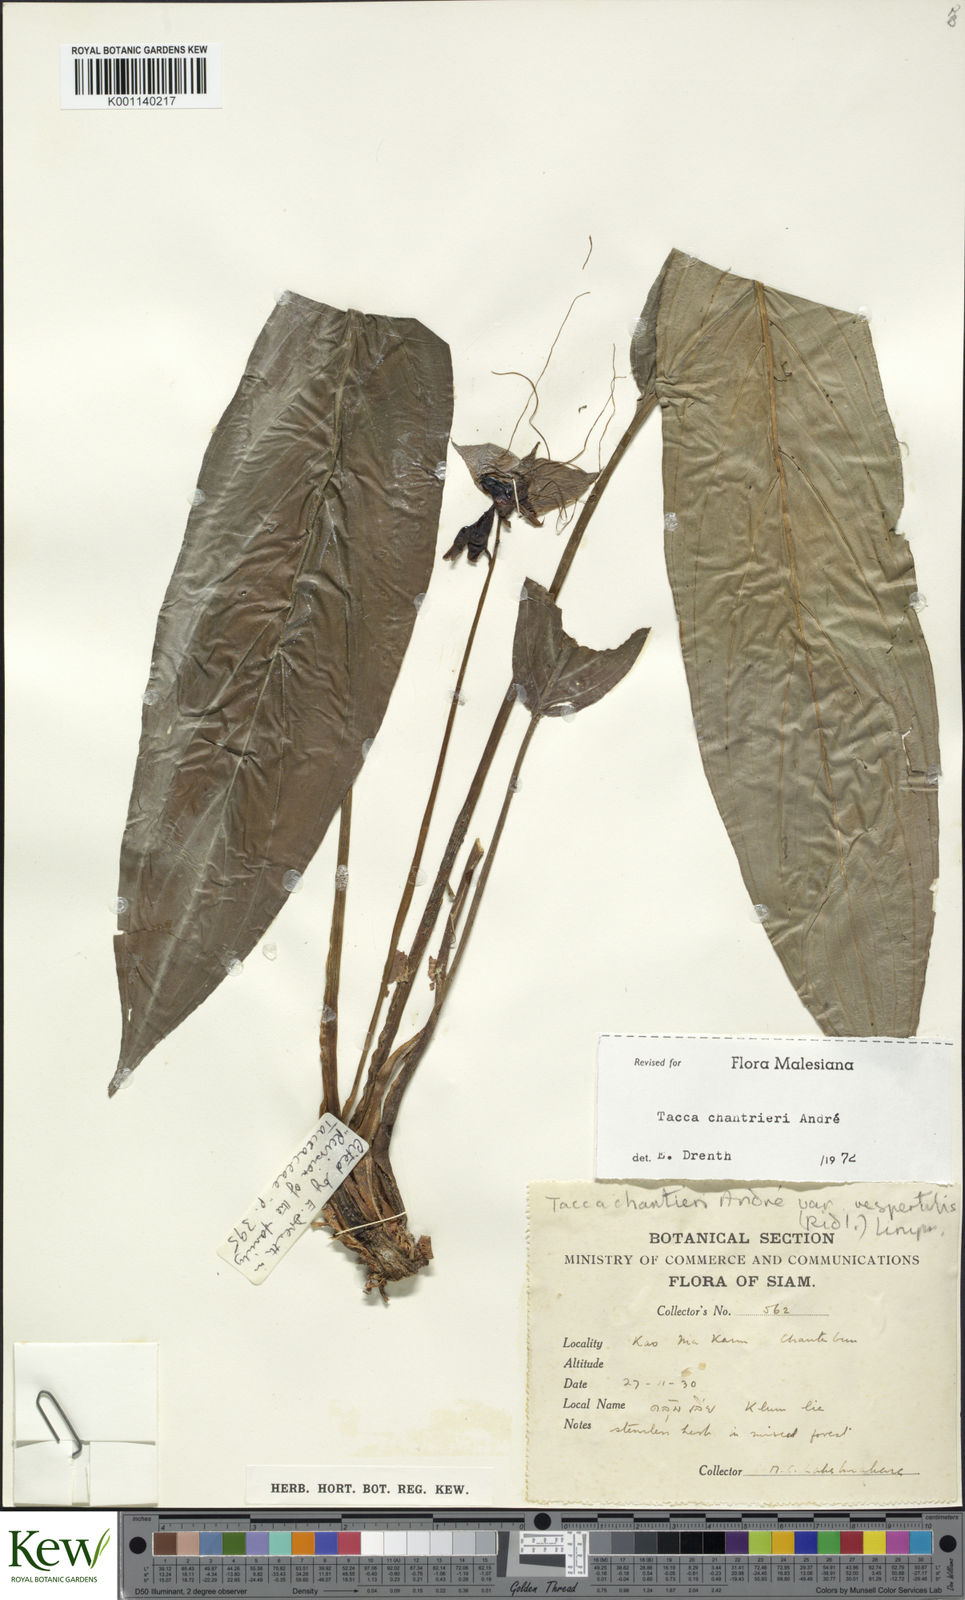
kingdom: Plantae
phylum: Tracheophyta
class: Liliopsida
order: Dioscoreales
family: Dioscoreaceae
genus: Tacca
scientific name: Tacca
